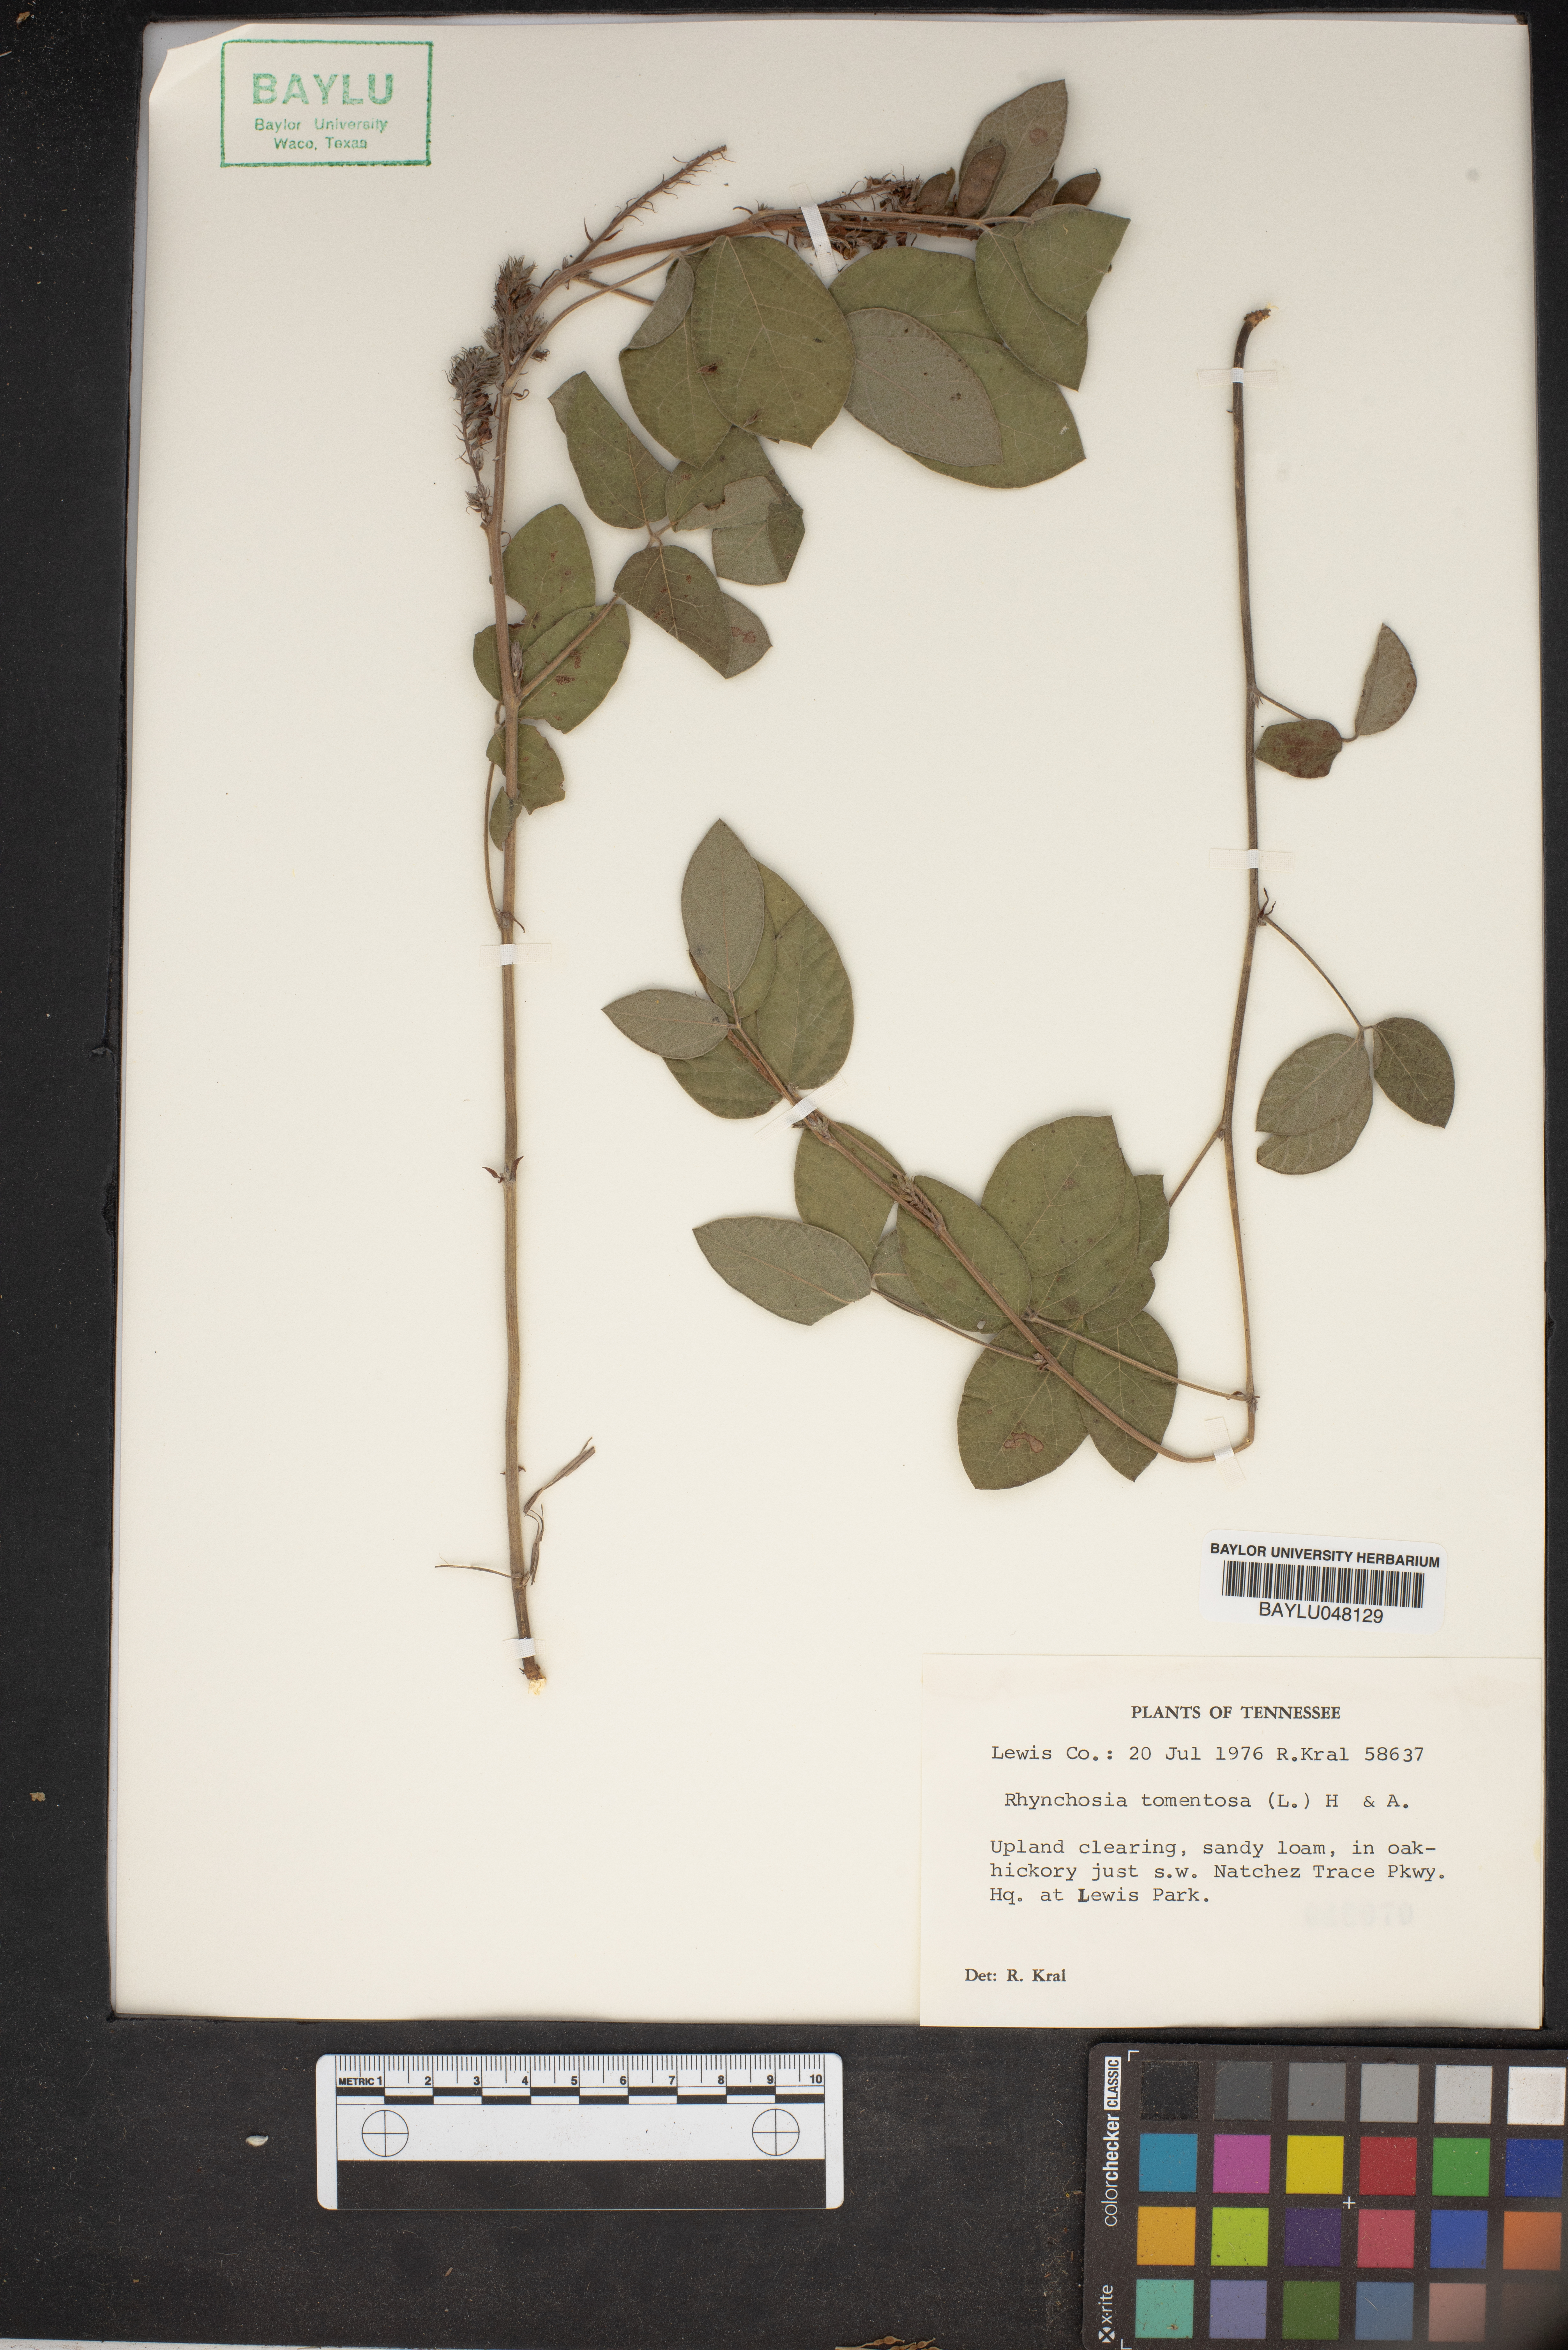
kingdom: Plantae
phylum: Tracheophyta
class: Magnoliopsida
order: Fabales
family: Fabaceae
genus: Rhynchosia
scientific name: Rhynchosia rothii
